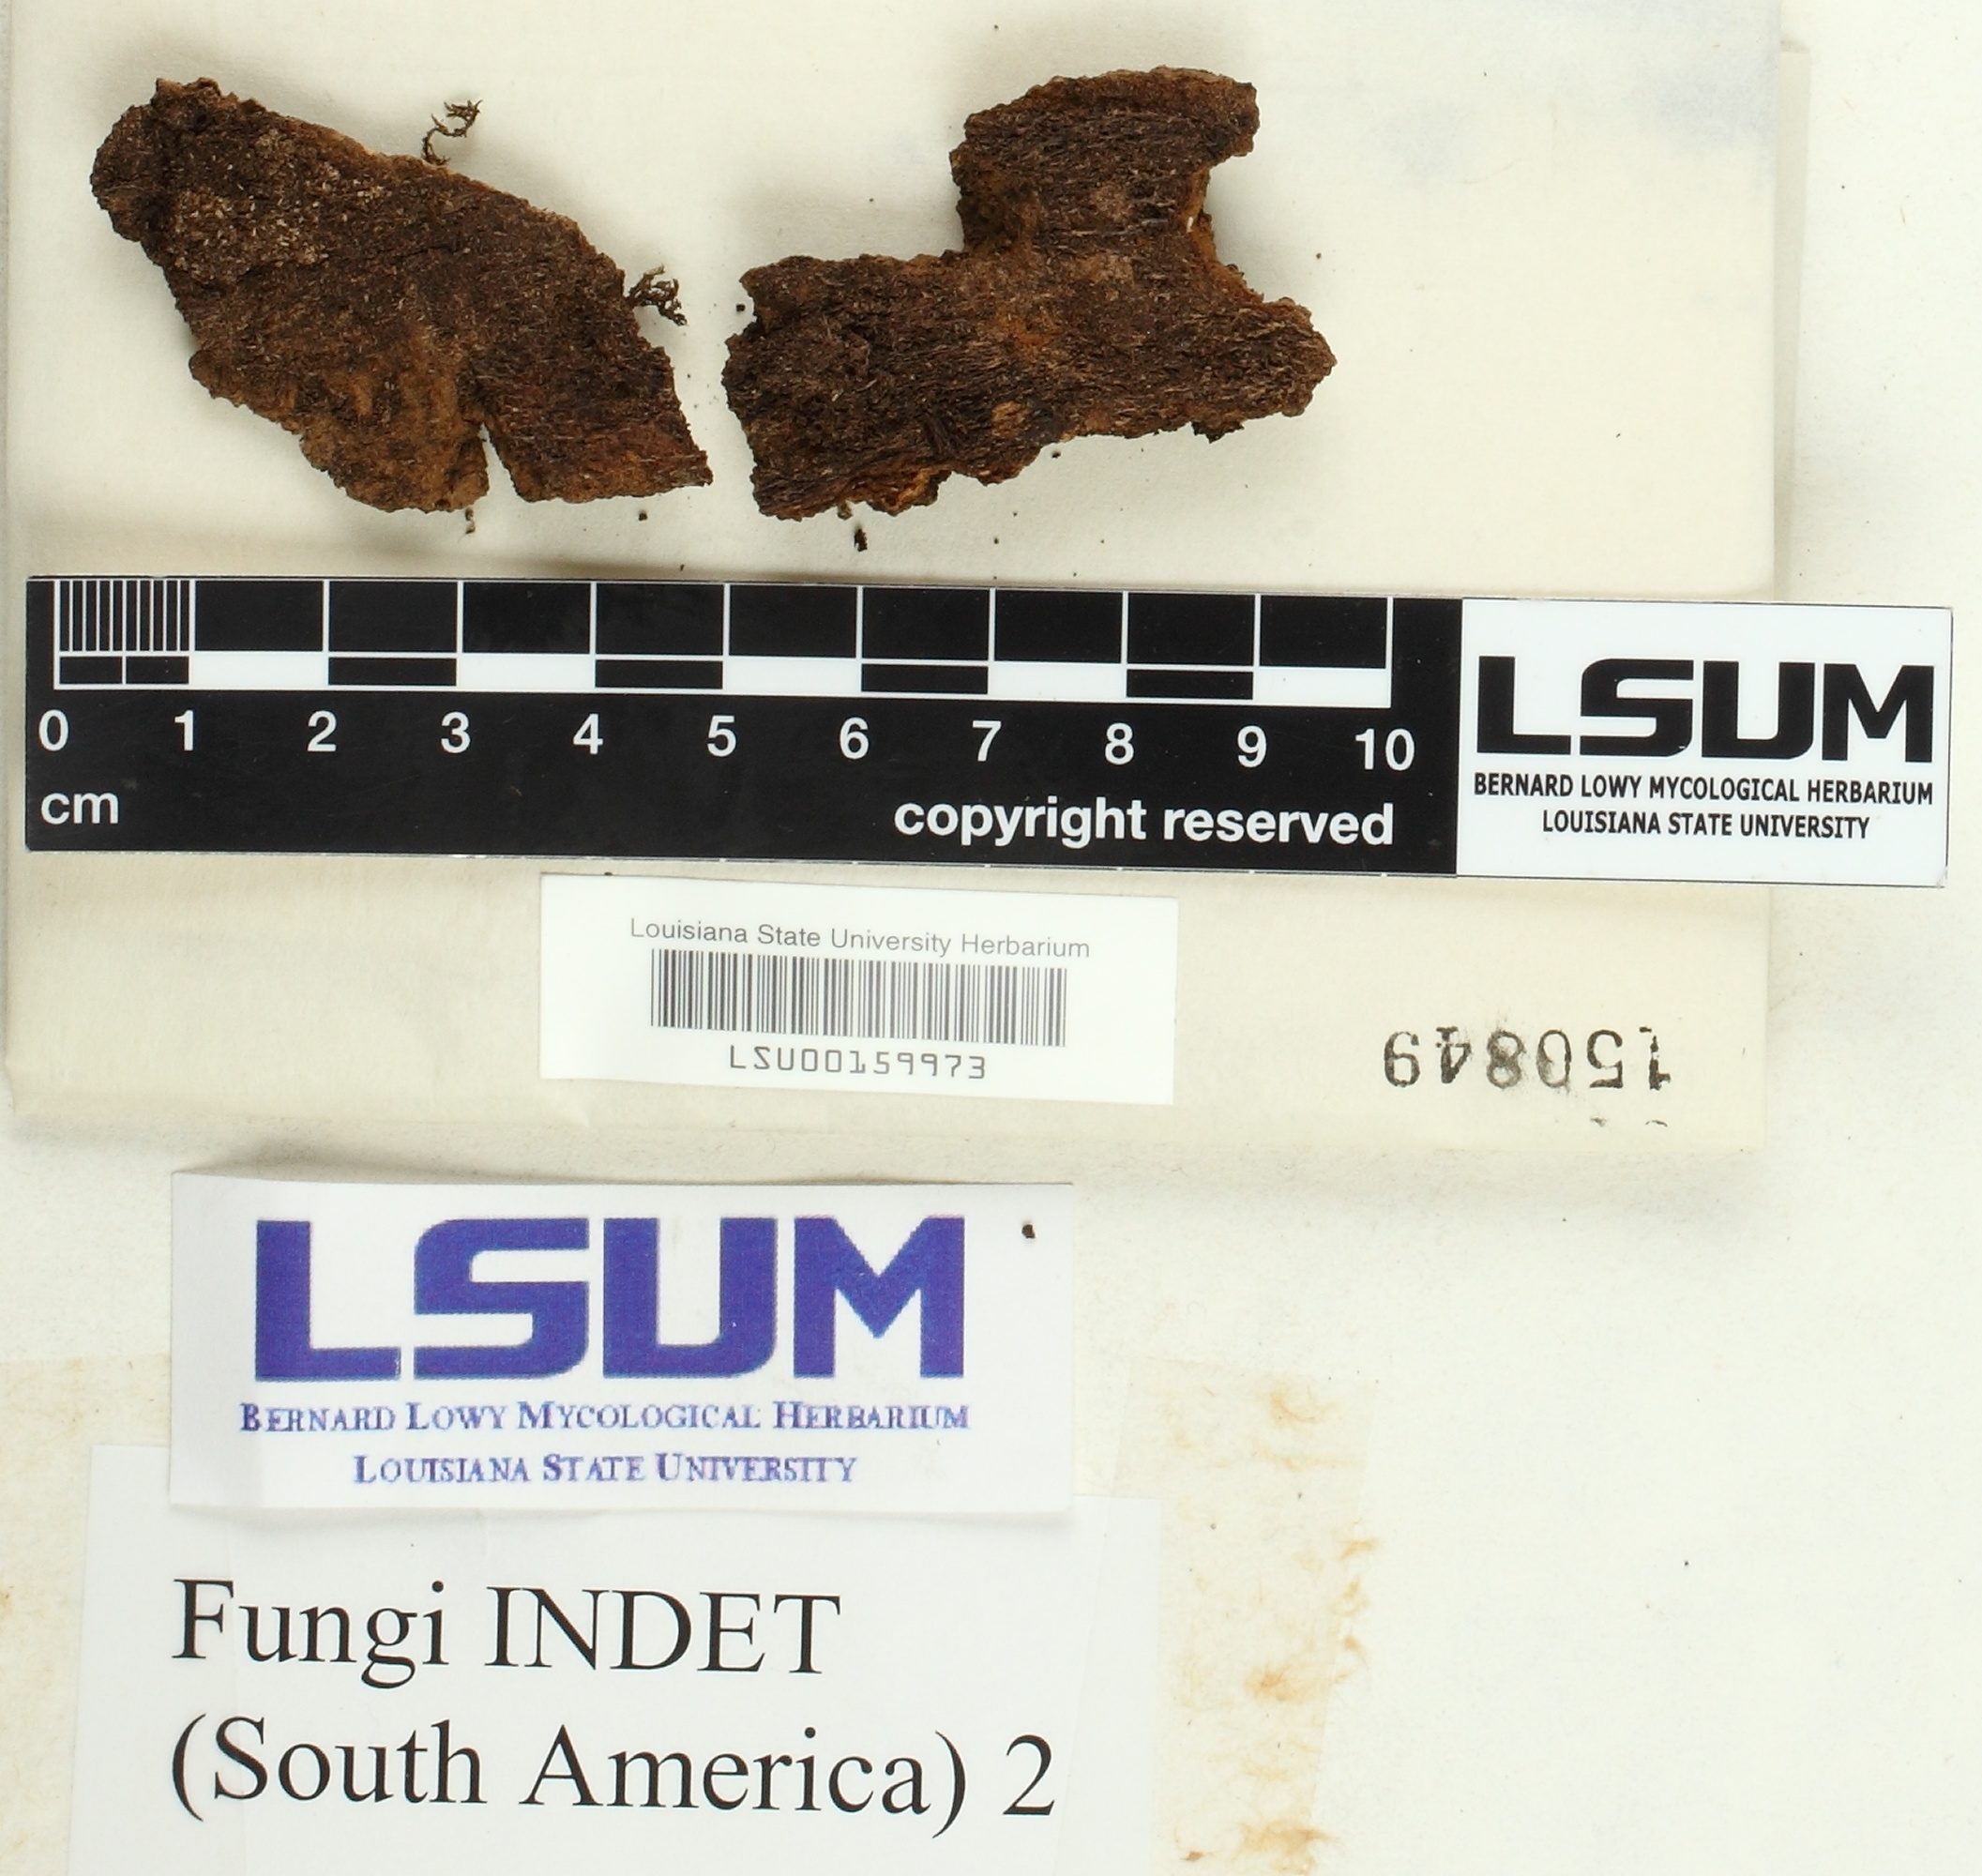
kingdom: Fungi
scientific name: Fungi
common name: Fungi
